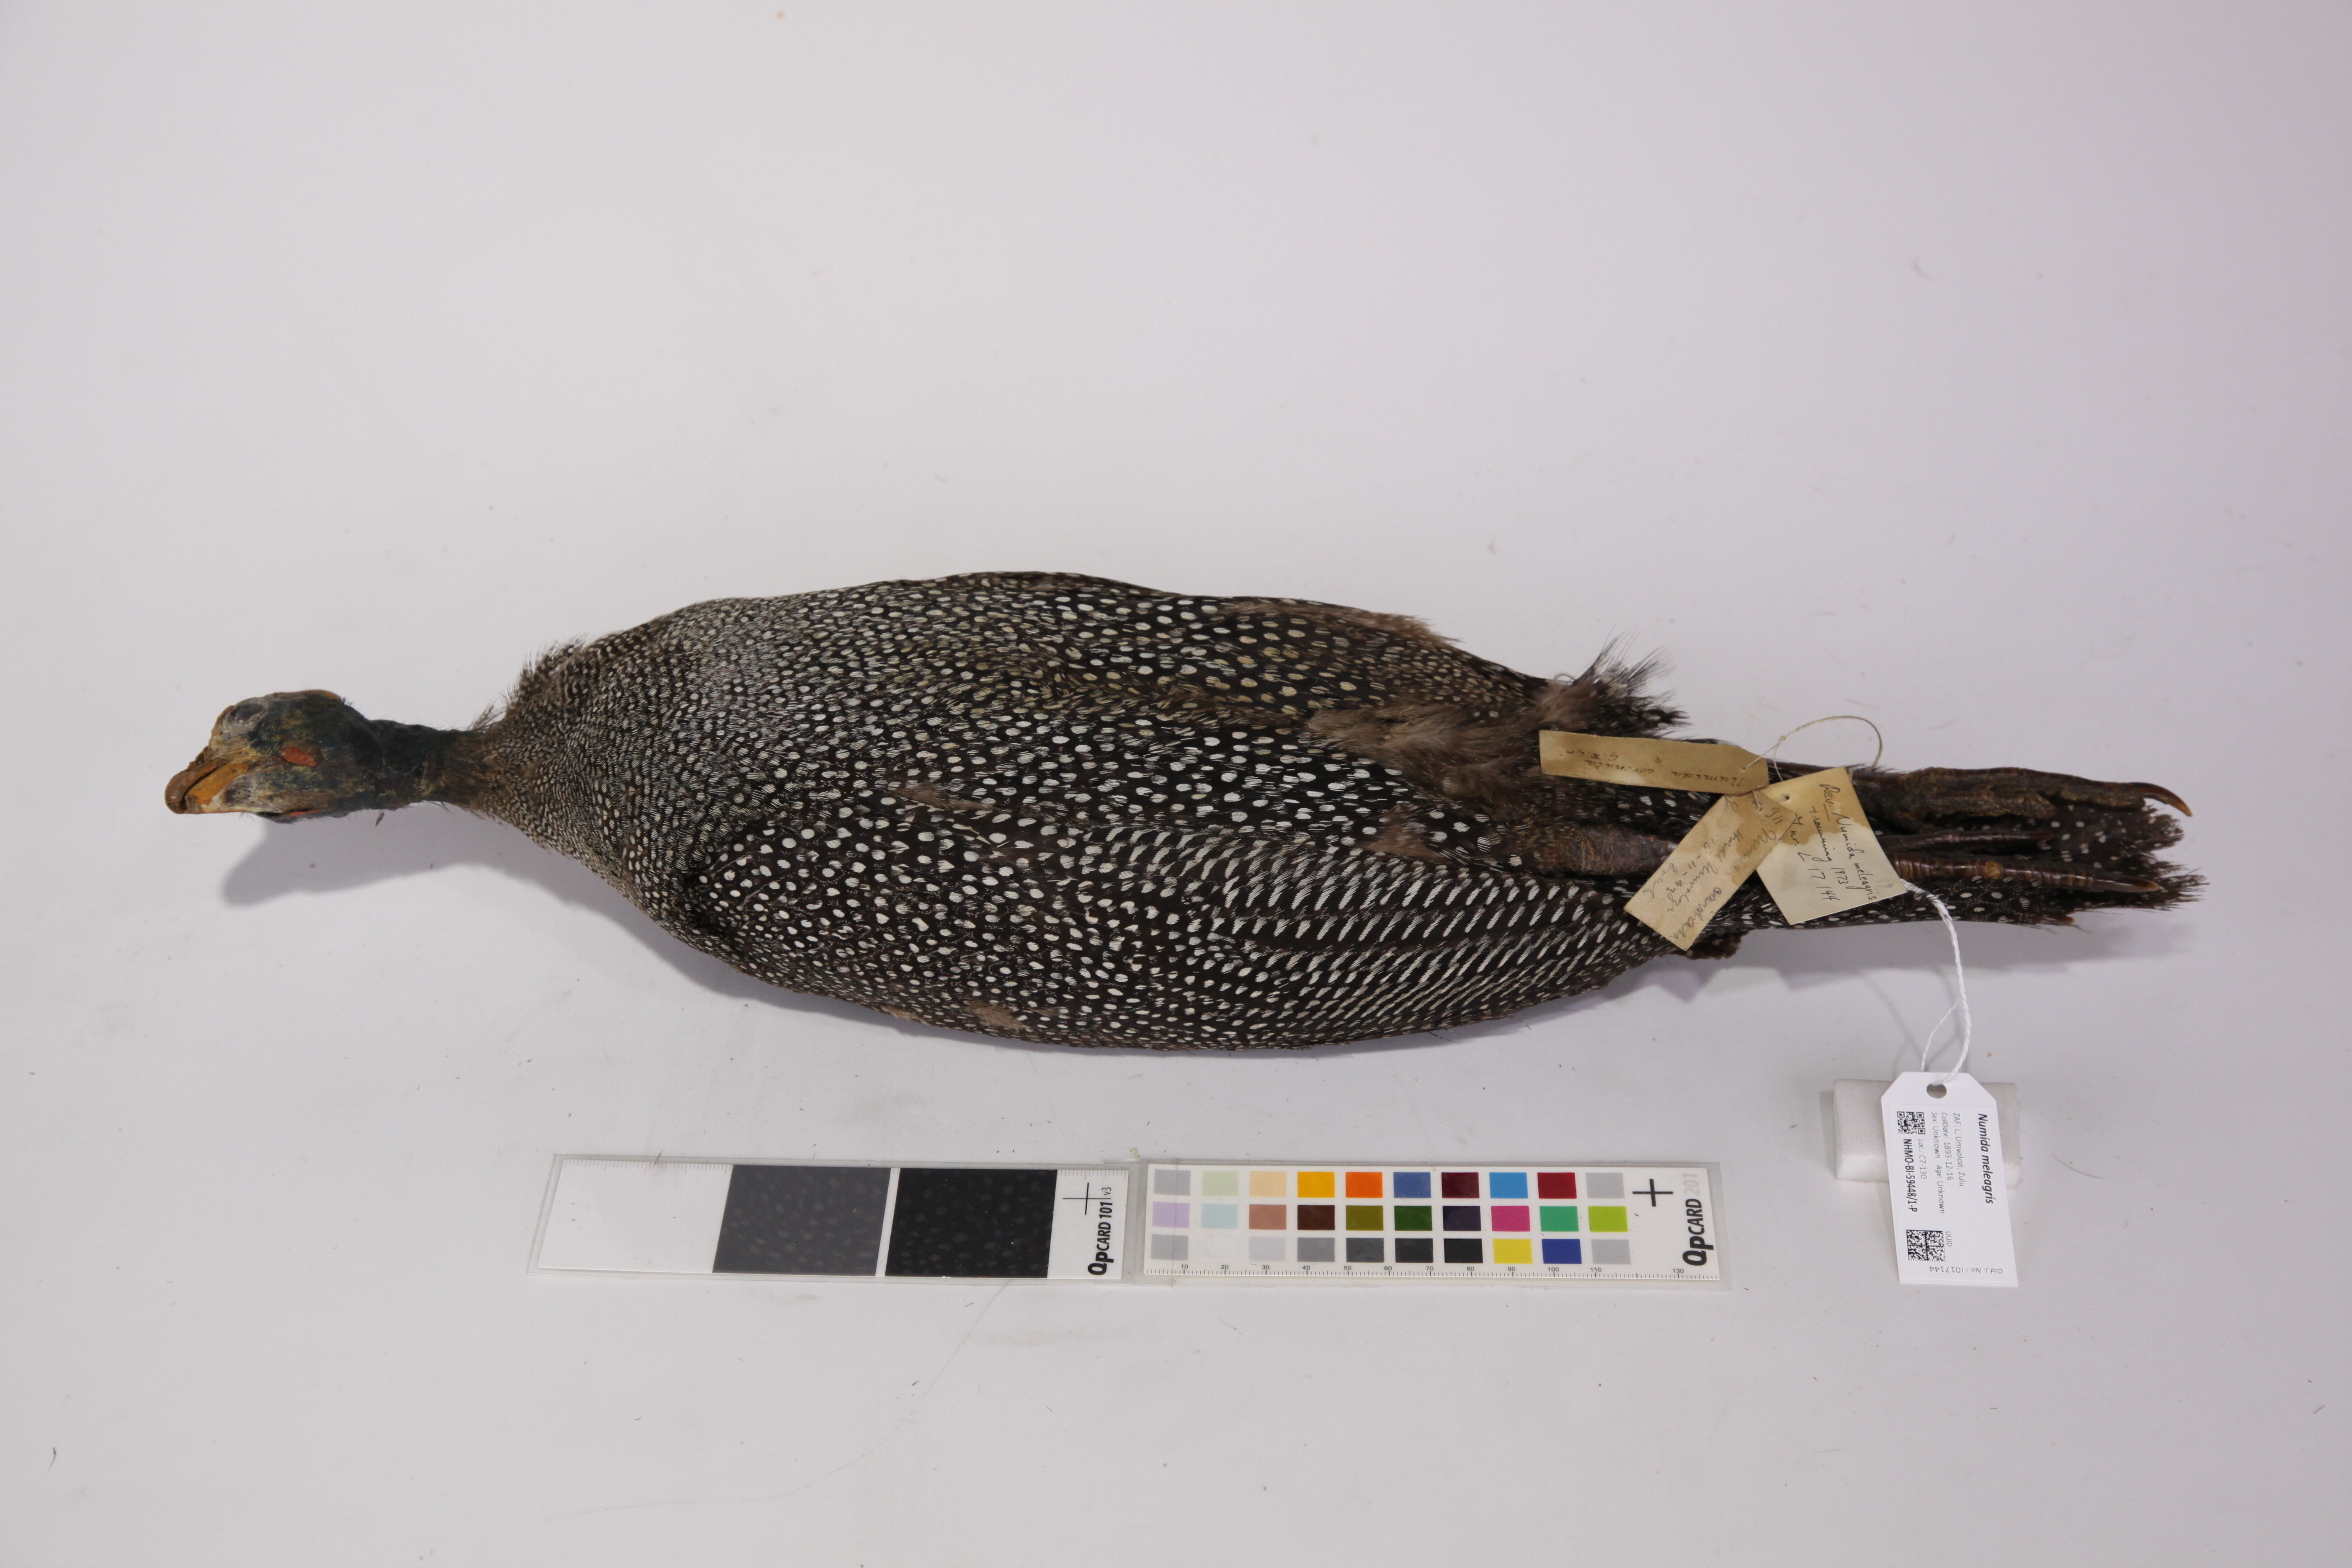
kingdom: Animalia
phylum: Chordata
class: Aves
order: Galliformes
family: Numididae
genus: Numida
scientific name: Numida meleagris
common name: Helmeted guineafowl
